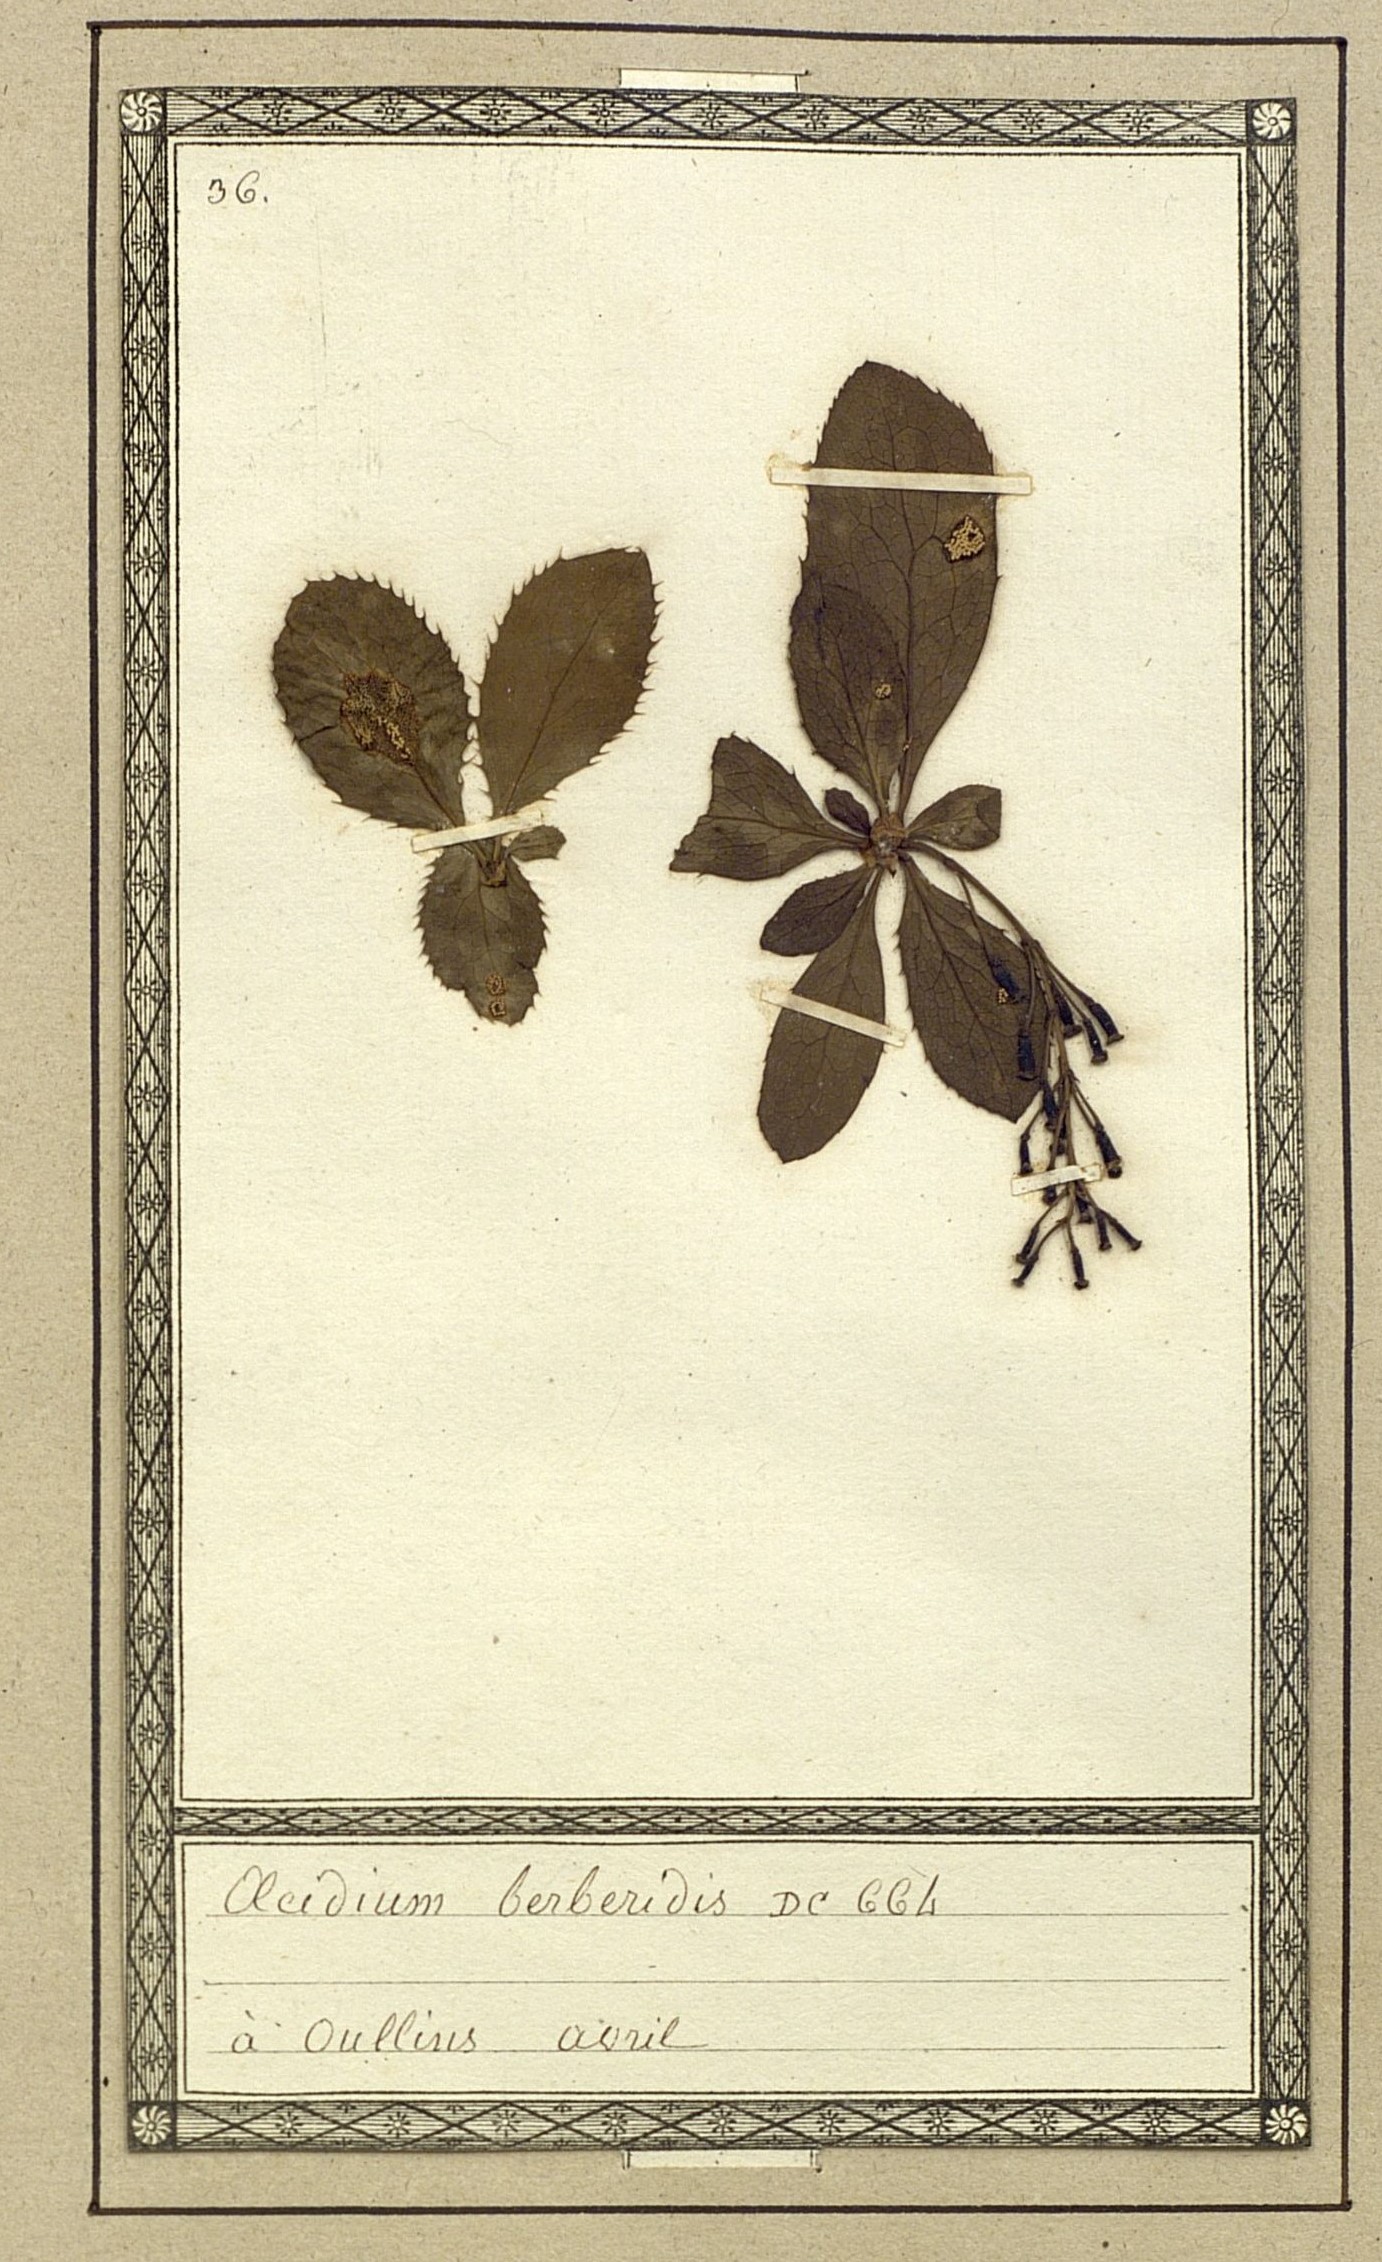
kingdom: Fungi
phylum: Basidiomycota
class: Pucciniomycetes
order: Pucciniales
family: Pucciniaceae
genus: Puccinia
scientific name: Puccinia graminis
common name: Black stem rust
